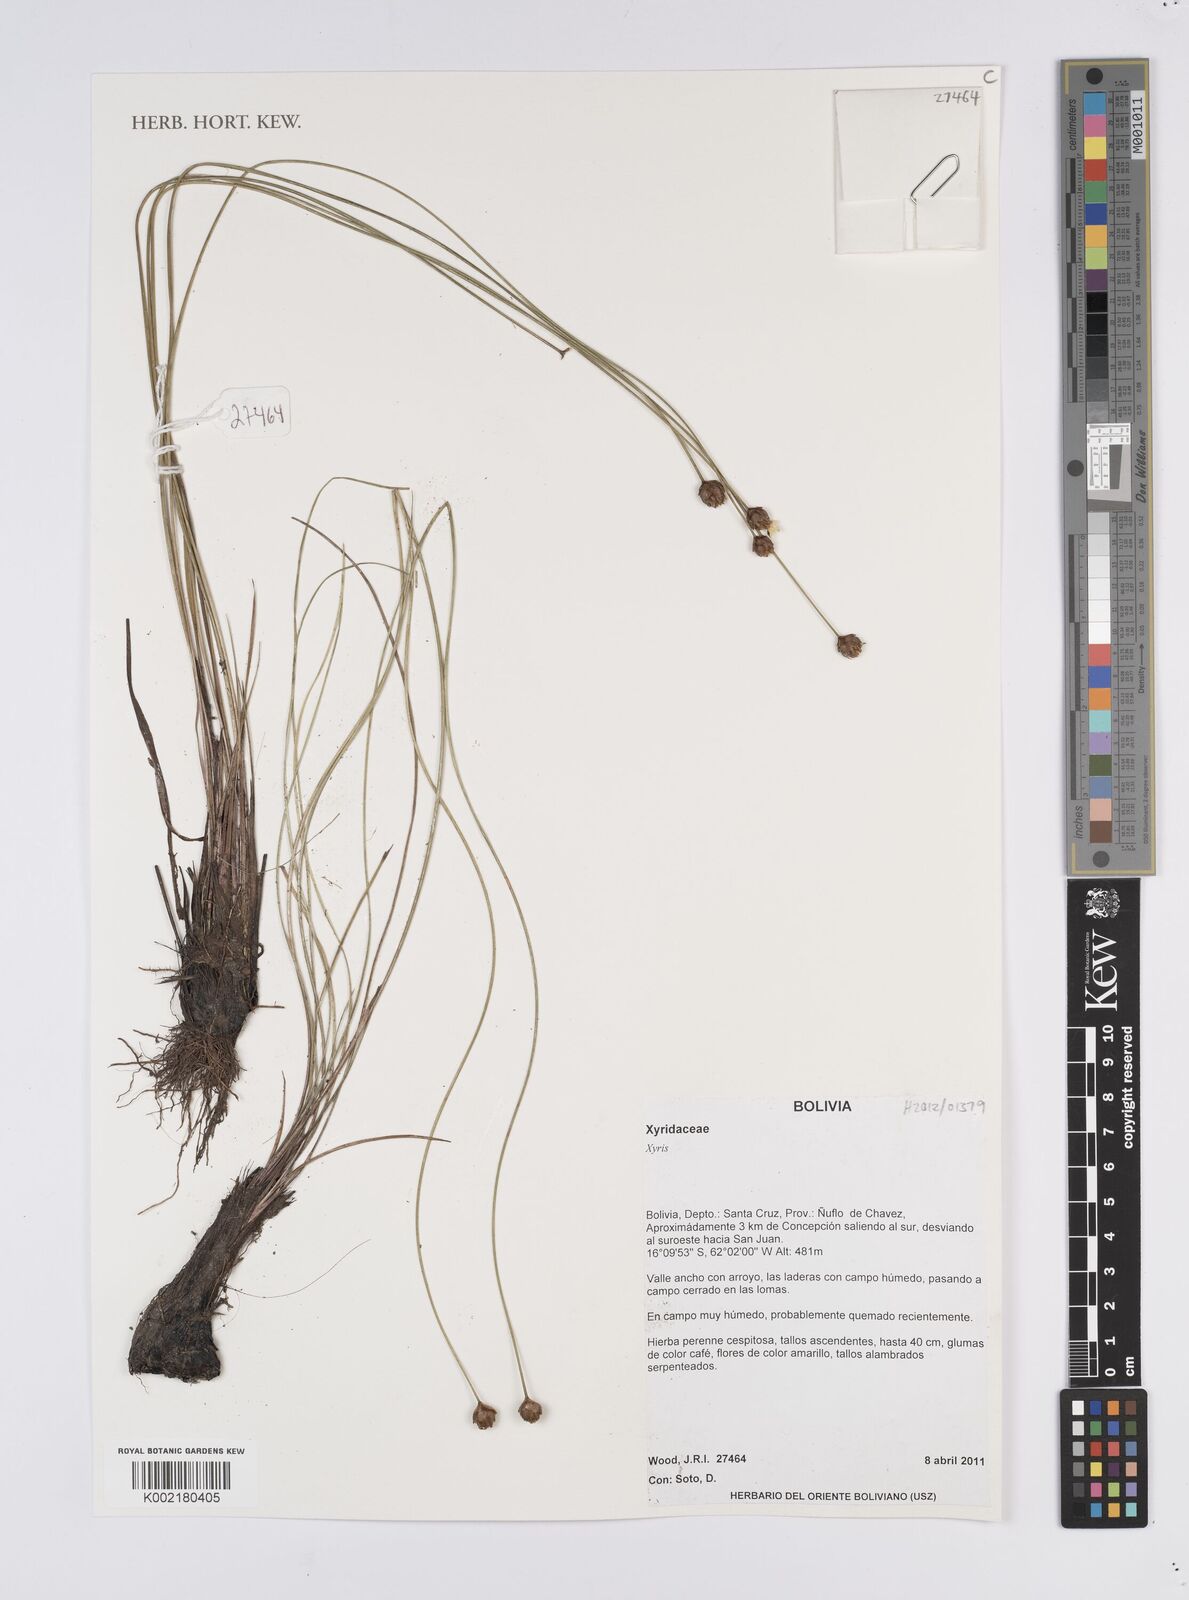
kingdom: Plantae
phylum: Tracheophyta
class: Liliopsida
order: Poales
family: Xyridaceae
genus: Xyris
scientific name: Xyris
